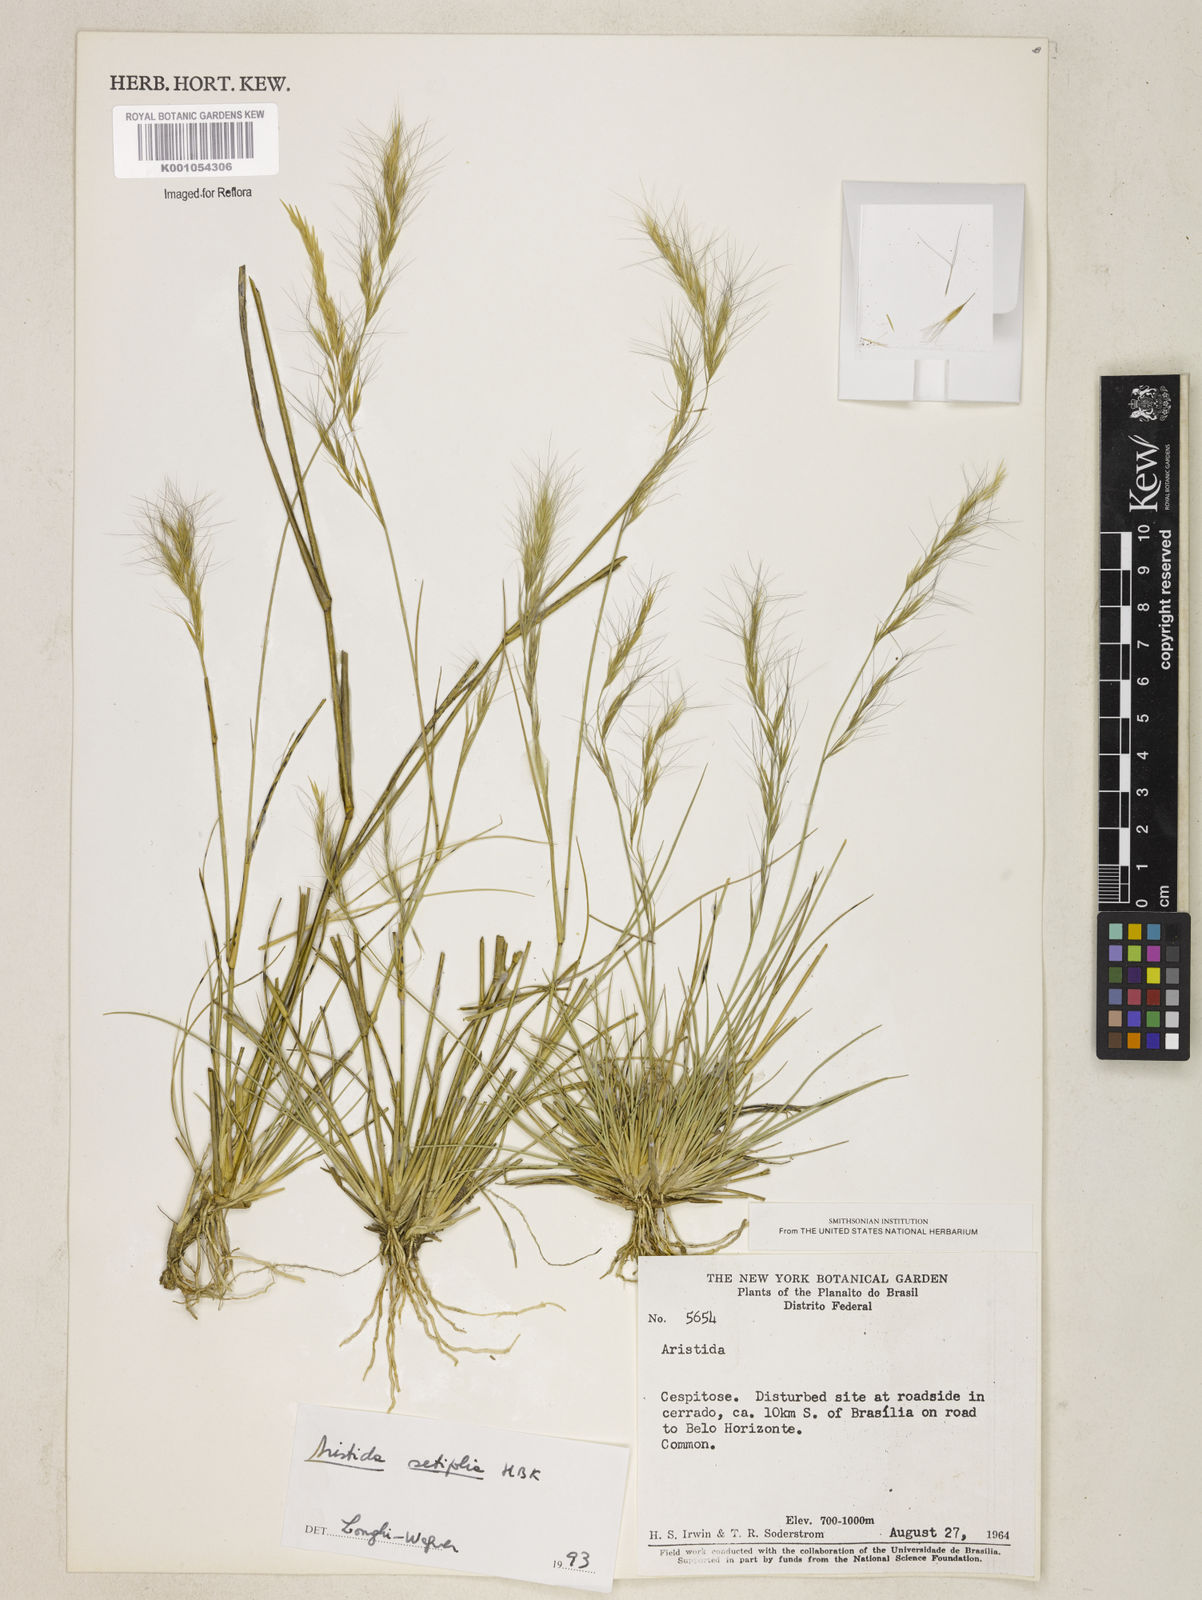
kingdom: Plantae
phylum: Tracheophyta
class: Liliopsida
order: Poales
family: Poaceae
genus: Aristida
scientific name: Aristida setifolia
